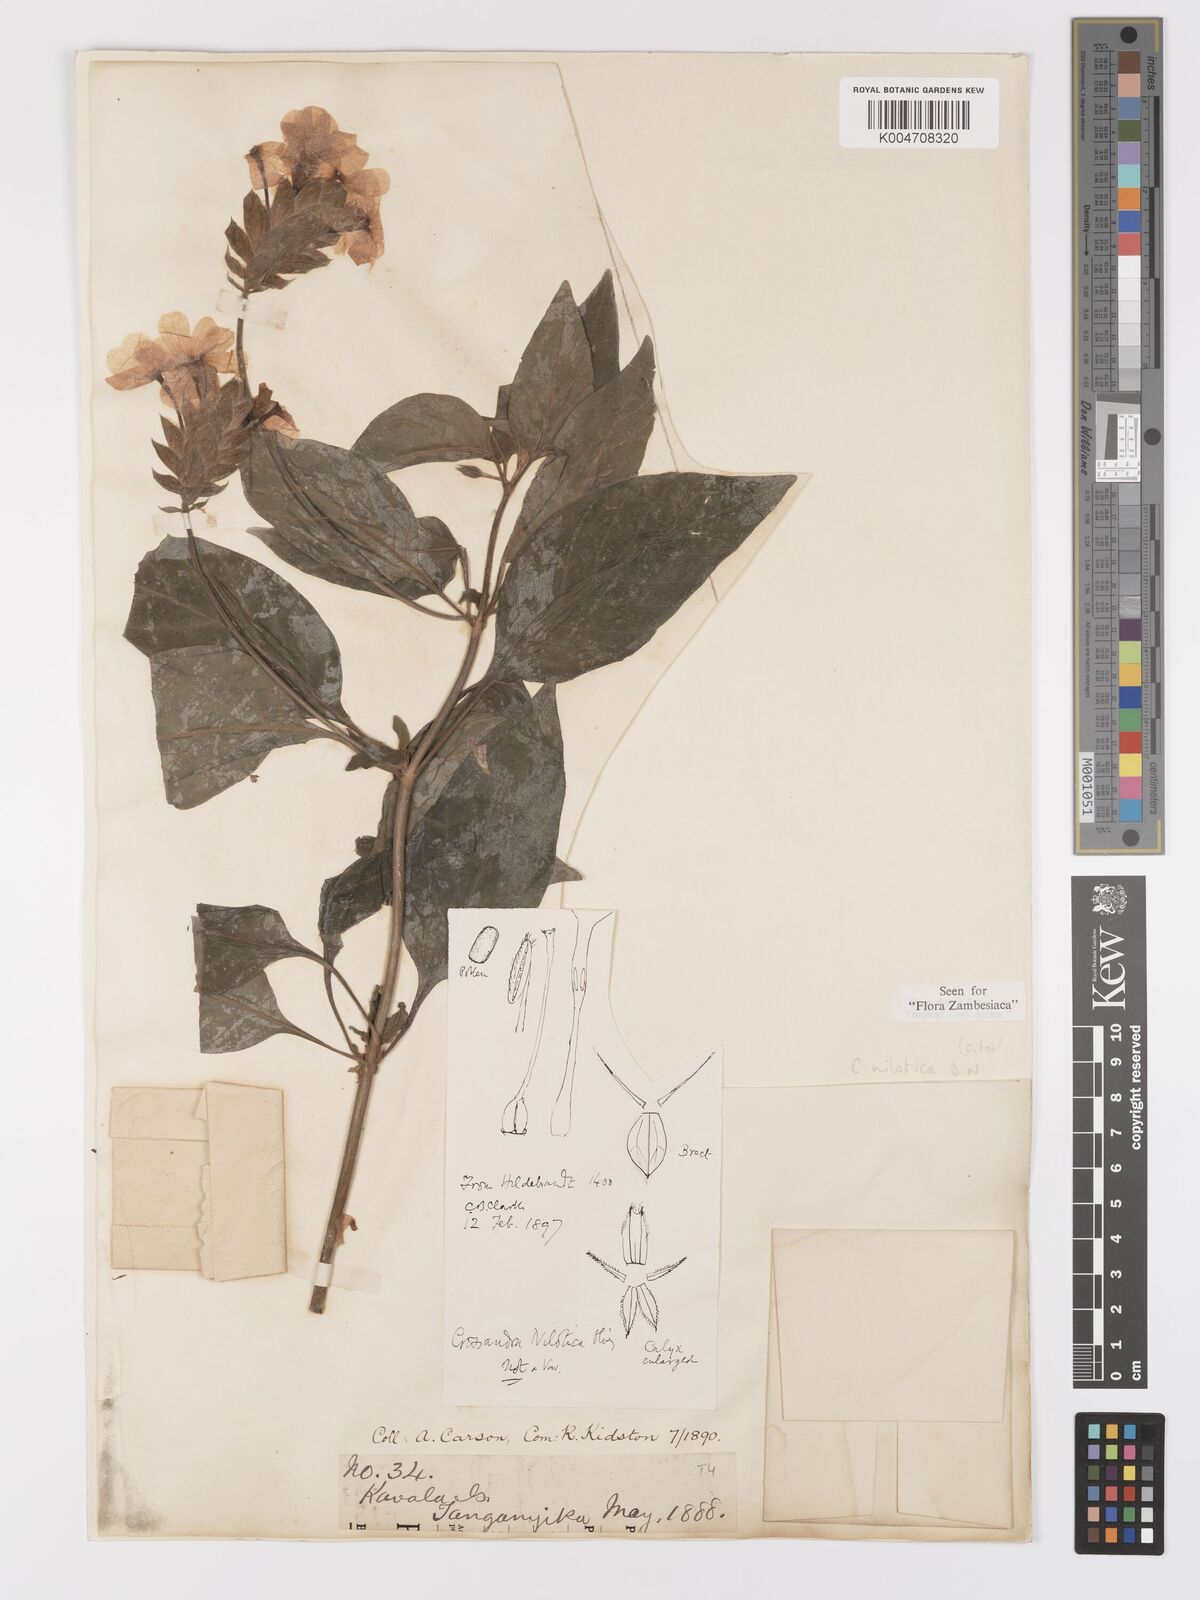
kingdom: Plantae
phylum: Tracheophyta
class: Magnoliopsida
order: Lamiales
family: Acanthaceae
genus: Crossandra
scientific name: Crossandra nilotica
